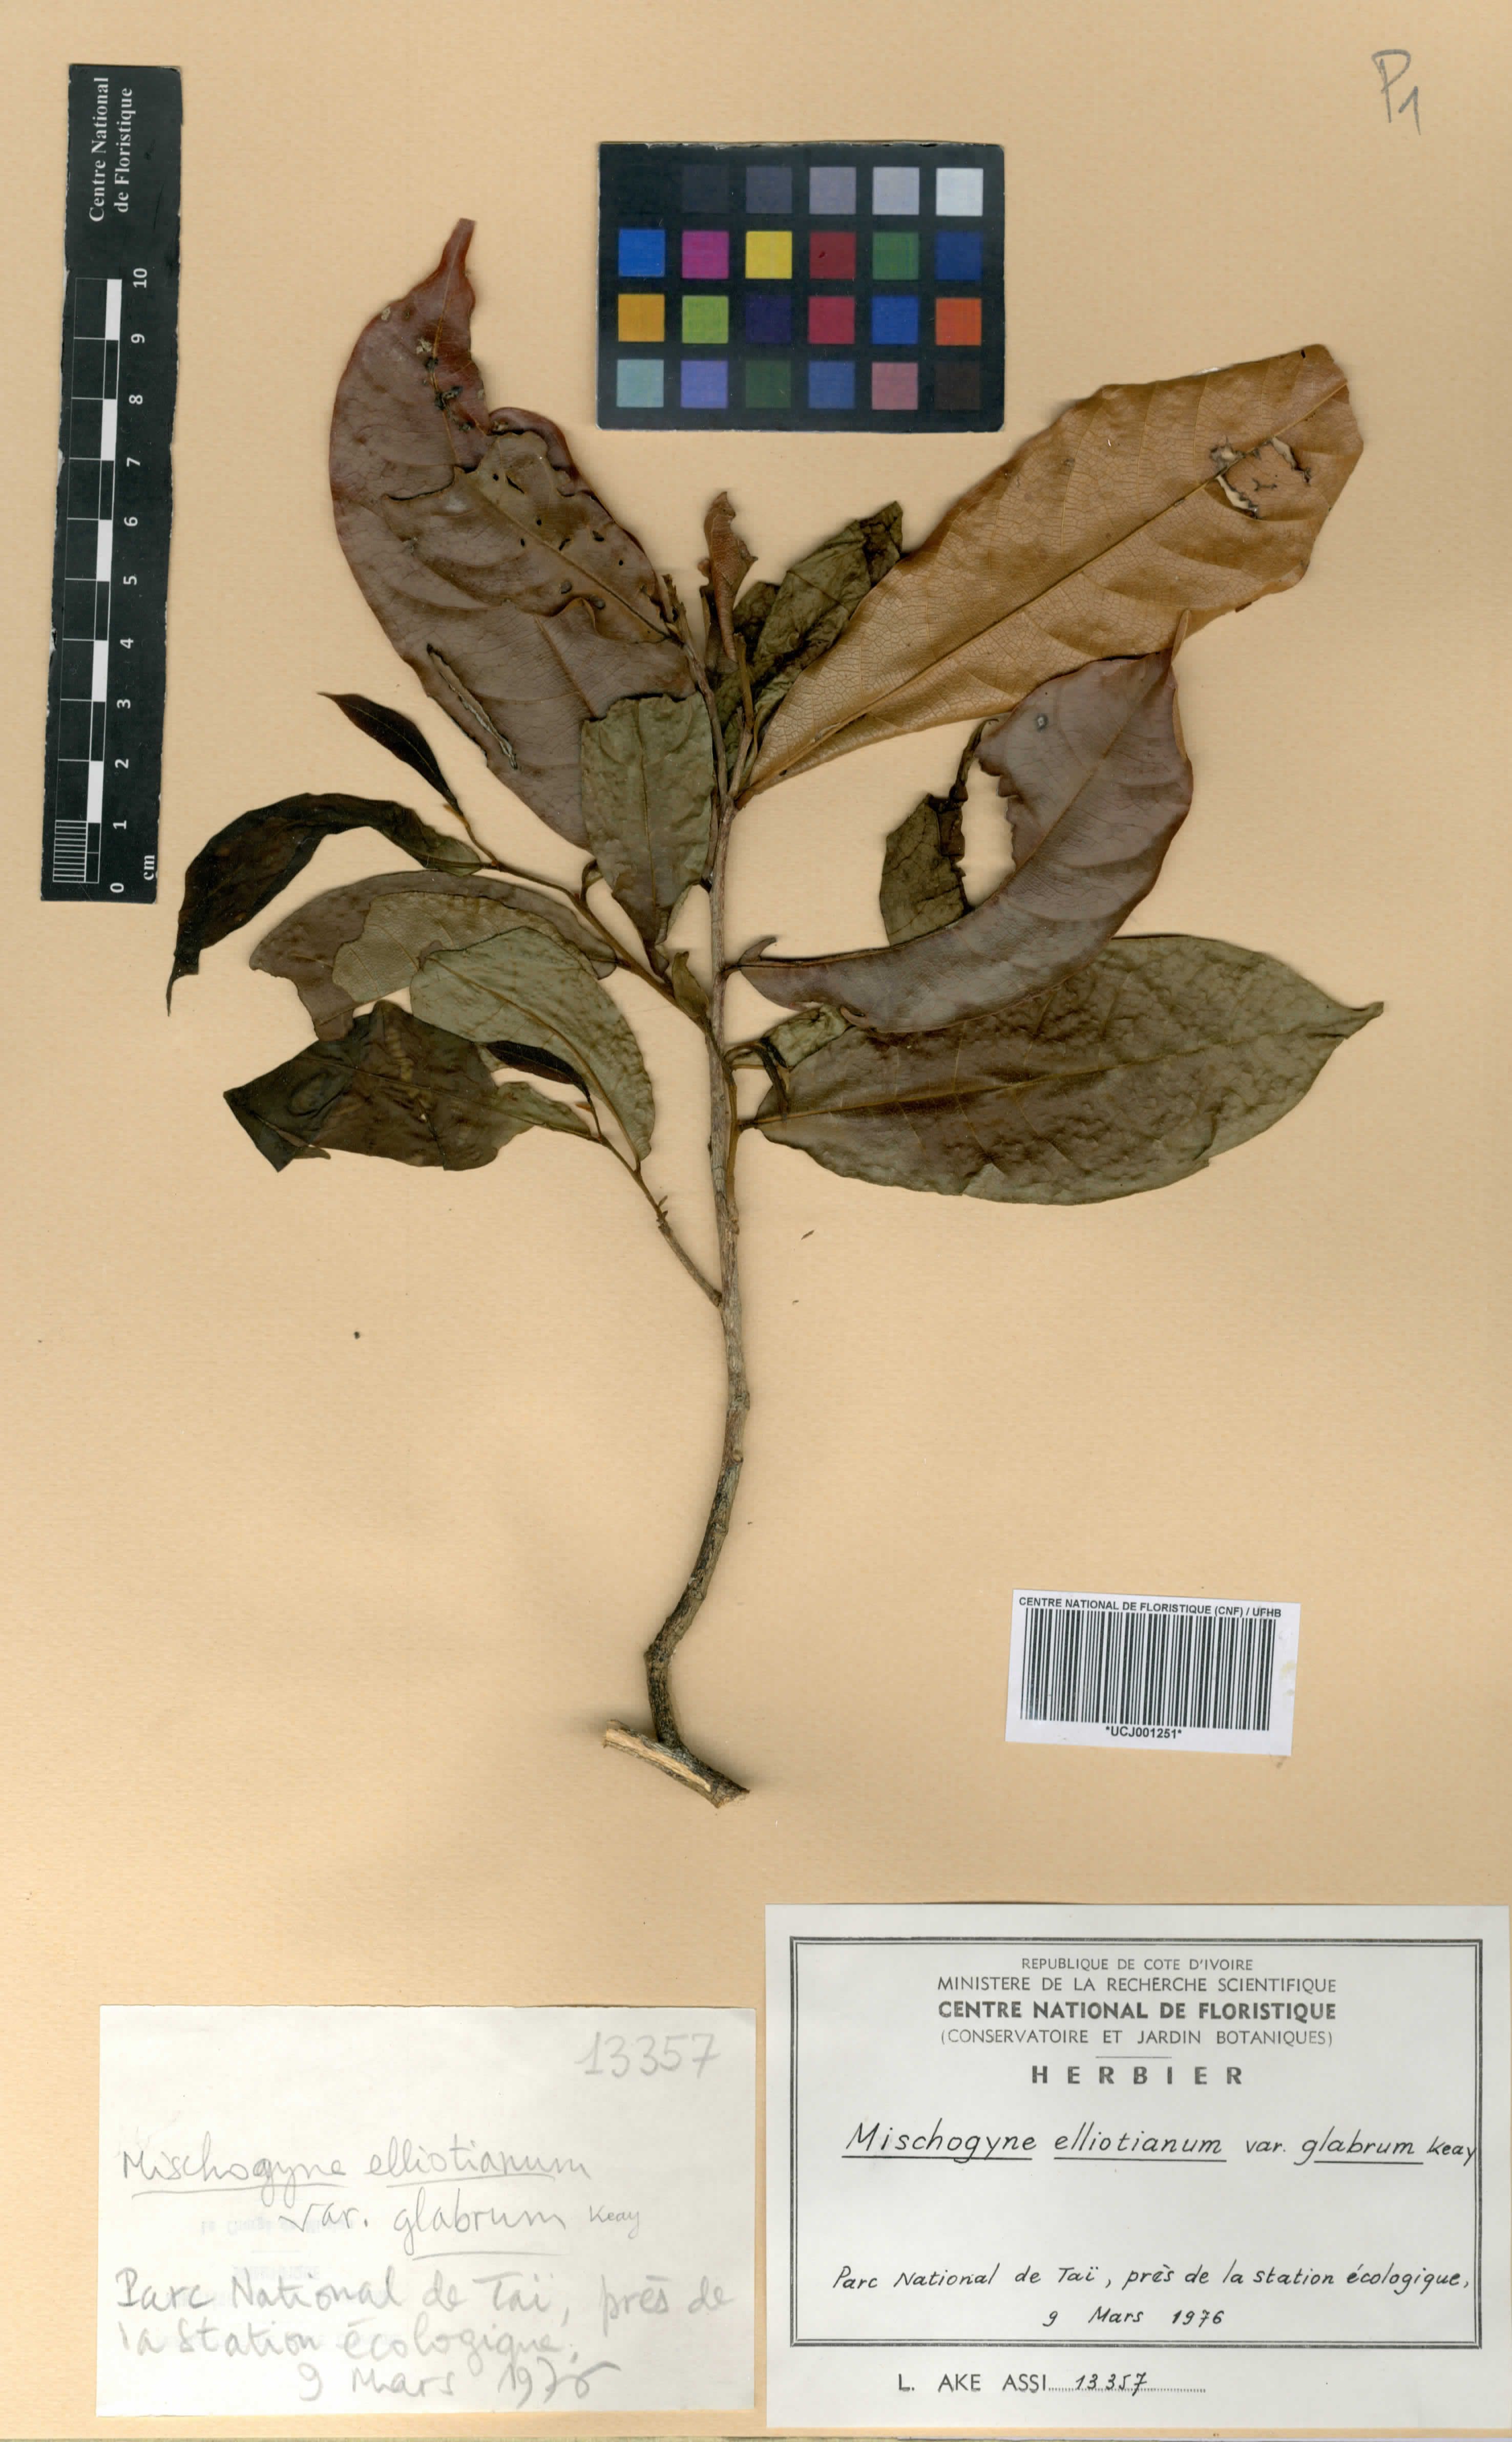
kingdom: Plantae
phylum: Tracheophyta
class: Magnoliopsida
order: Magnoliales
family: Annonaceae
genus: Mischogyne
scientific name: Mischogyne elliotianum
